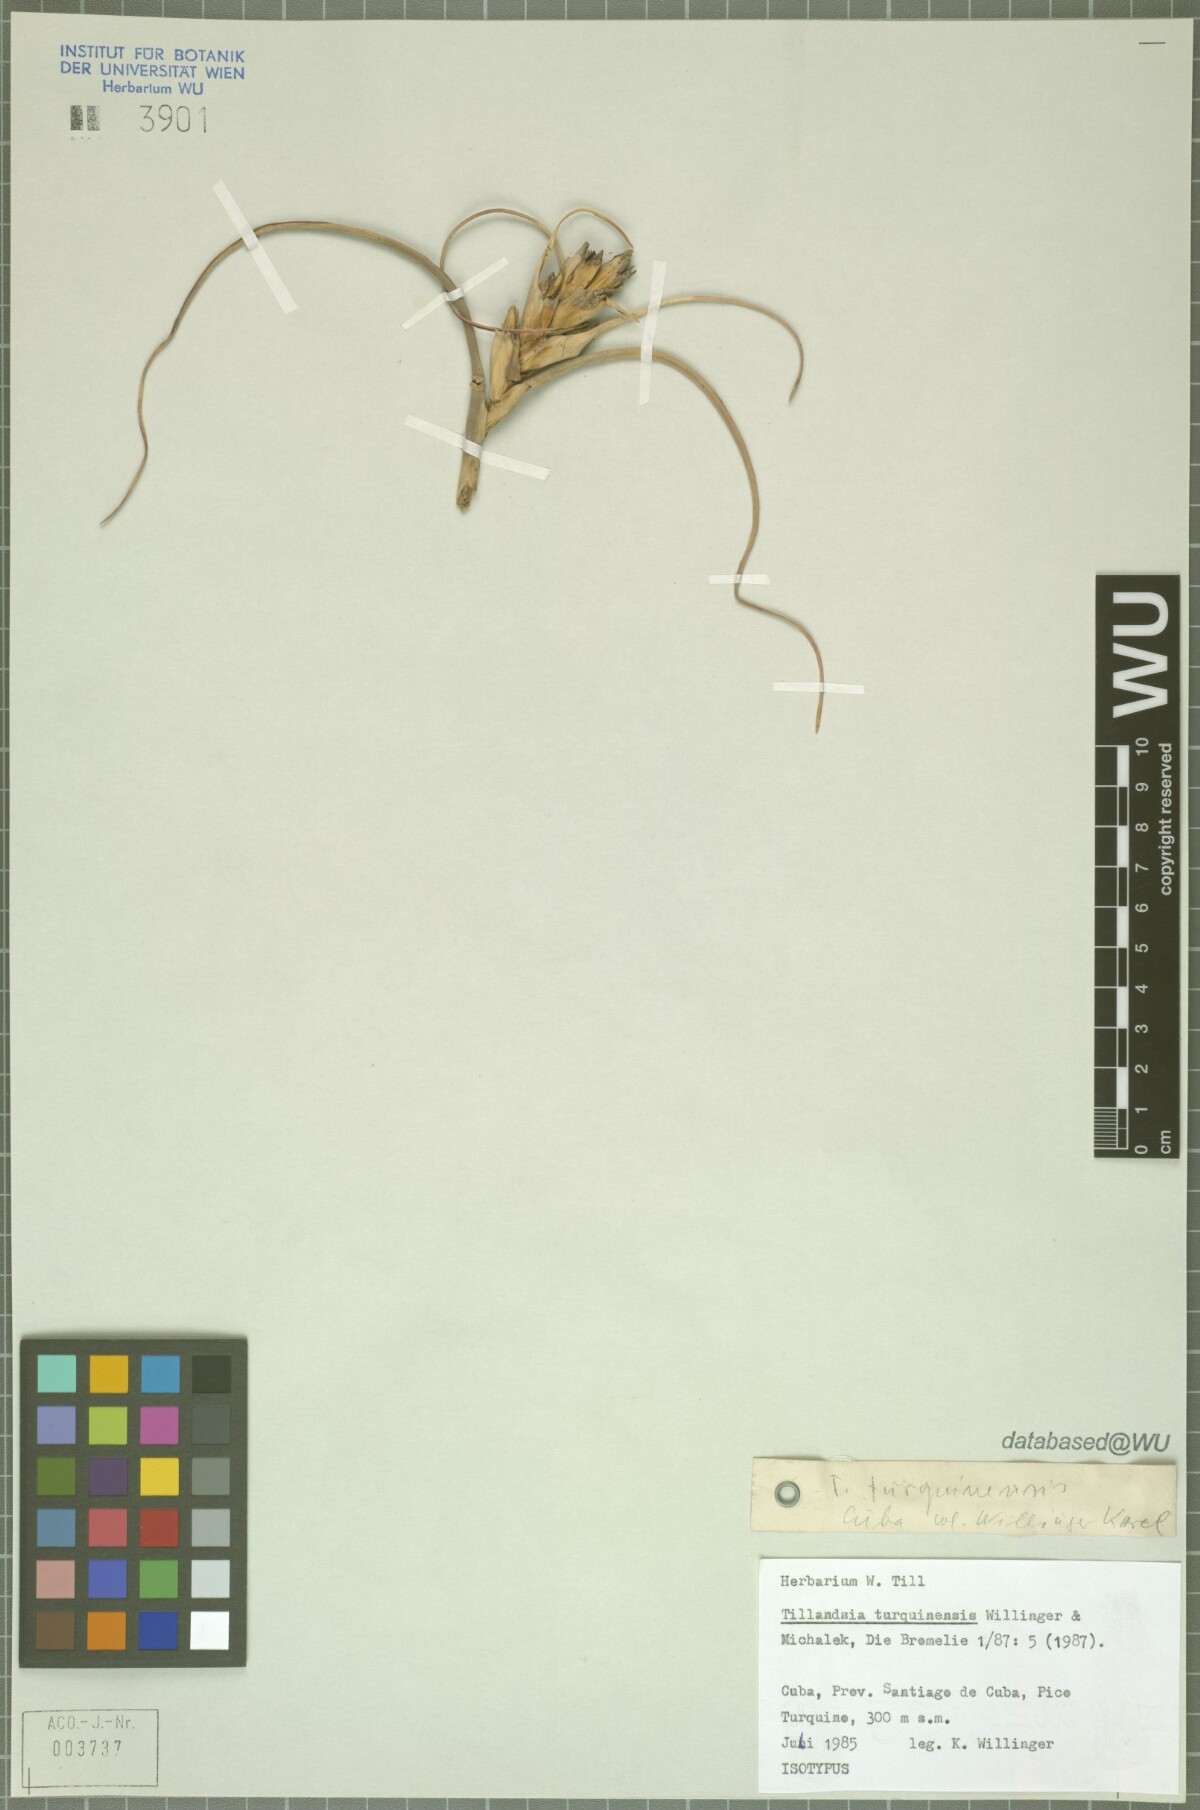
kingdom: Plantae
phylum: Tracheophyta
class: Liliopsida
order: Poales
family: Bromeliaceae
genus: Tillandsia
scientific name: Tillandsia turquinensis
